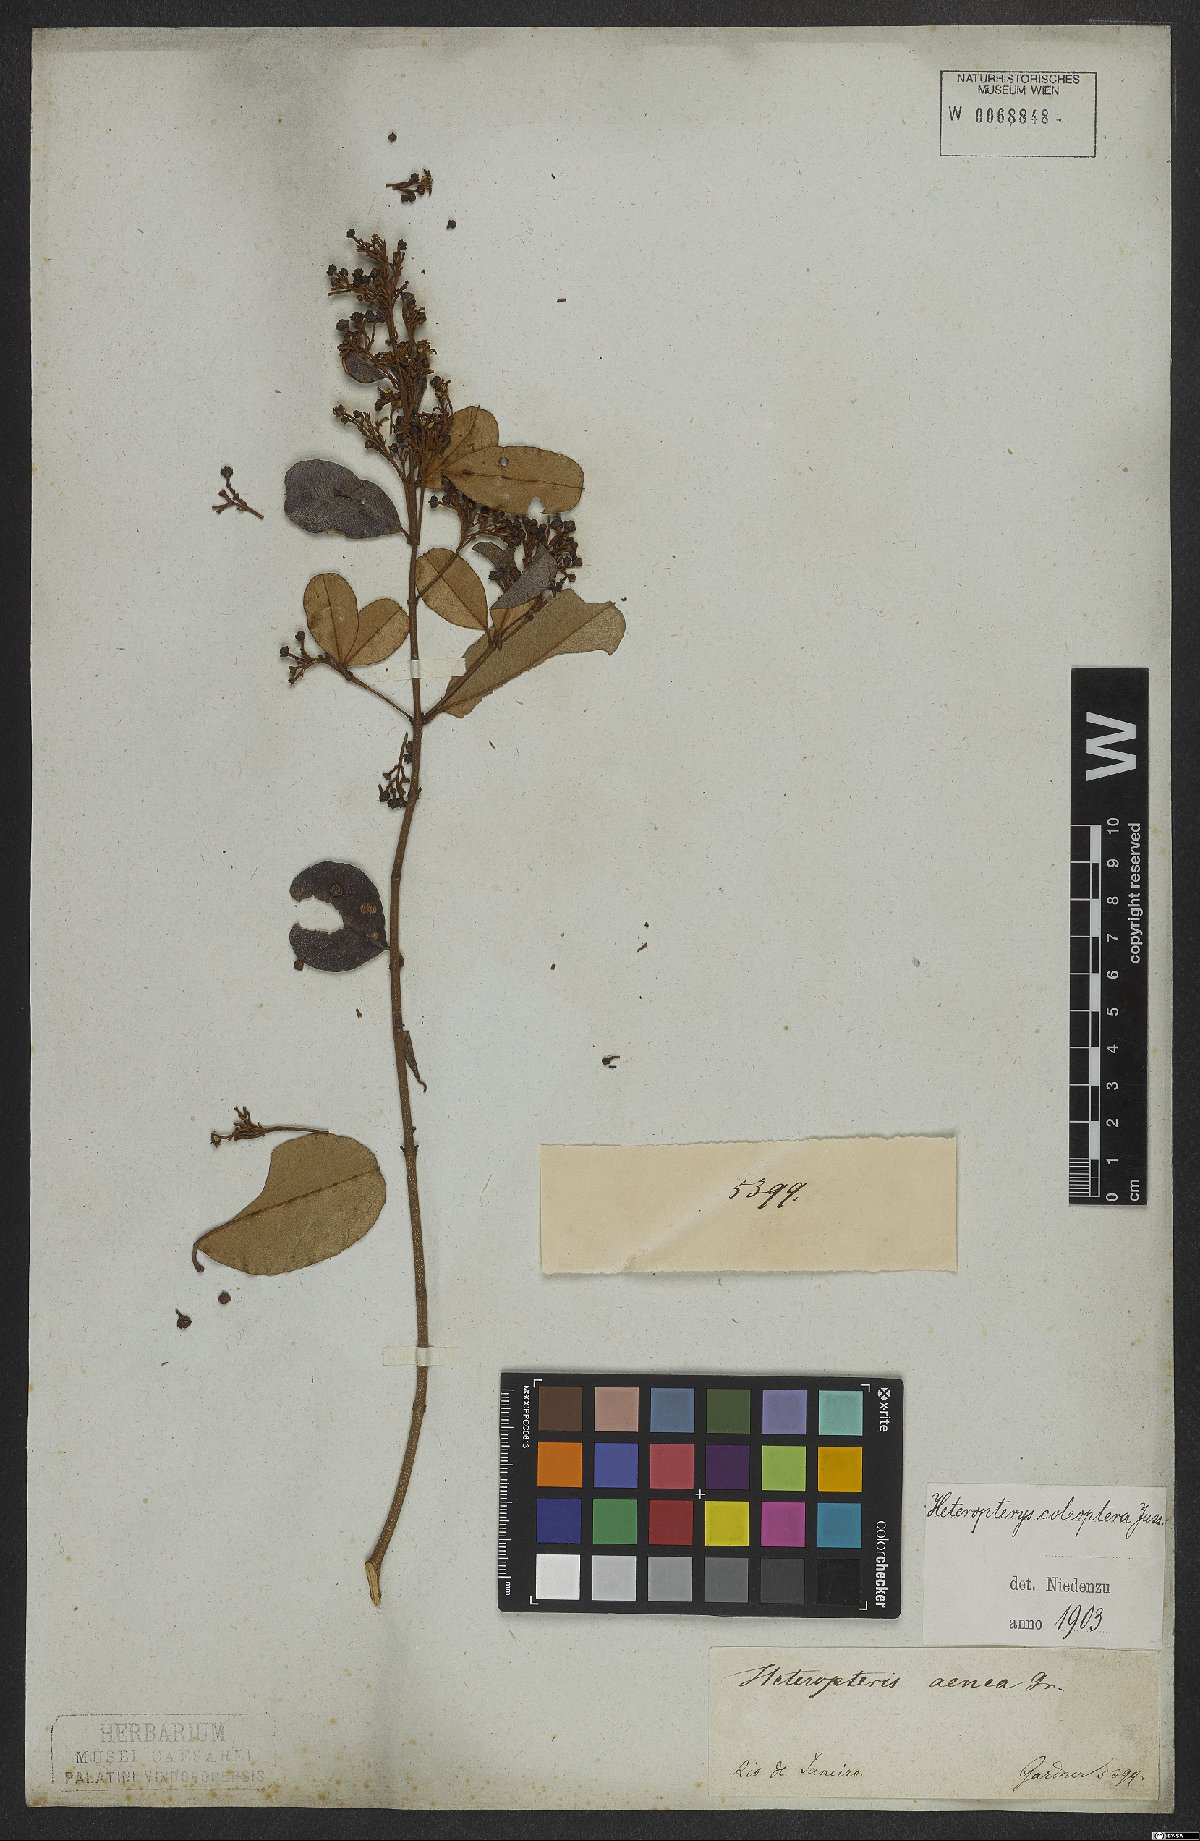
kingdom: Plantae
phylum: Tracheophyta
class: Magnoliopsida
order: Malpighiales
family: Malpighiaceae
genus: Heteropterys
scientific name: Heteropterys coleoptera
